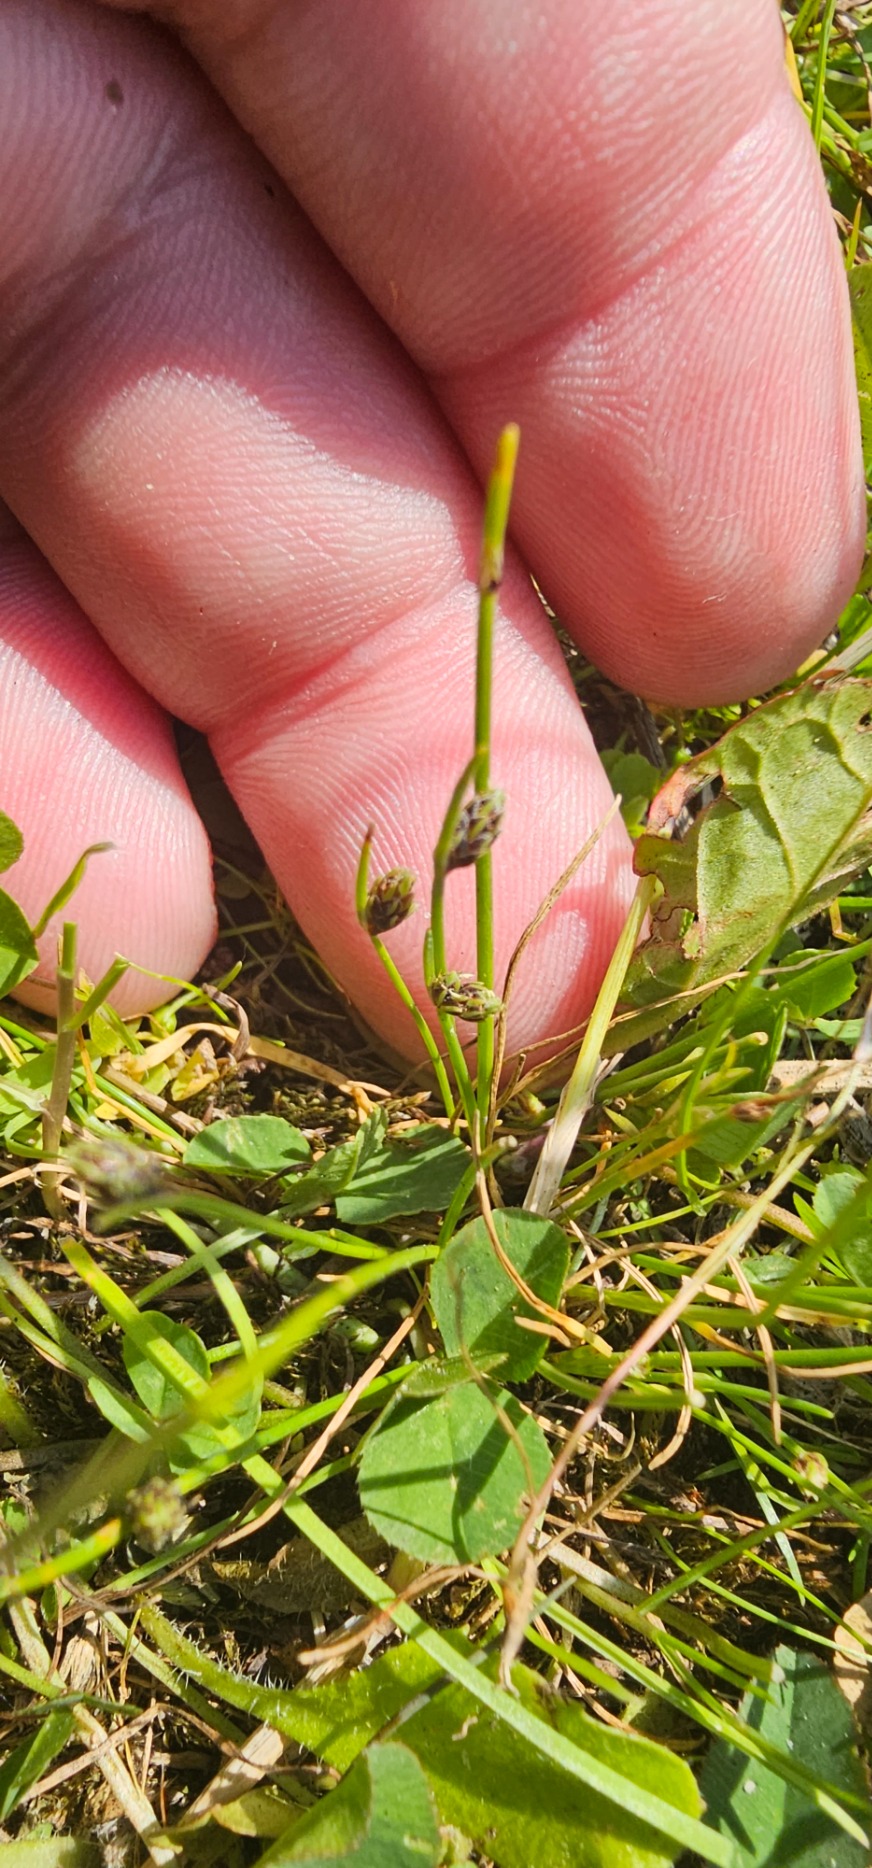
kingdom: Plantae
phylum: Tracheophyta
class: Liliopsida
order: Poales
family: Cyperaceae
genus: Isolepis
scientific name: Isolepis setacea
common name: Børste-kogleaks
